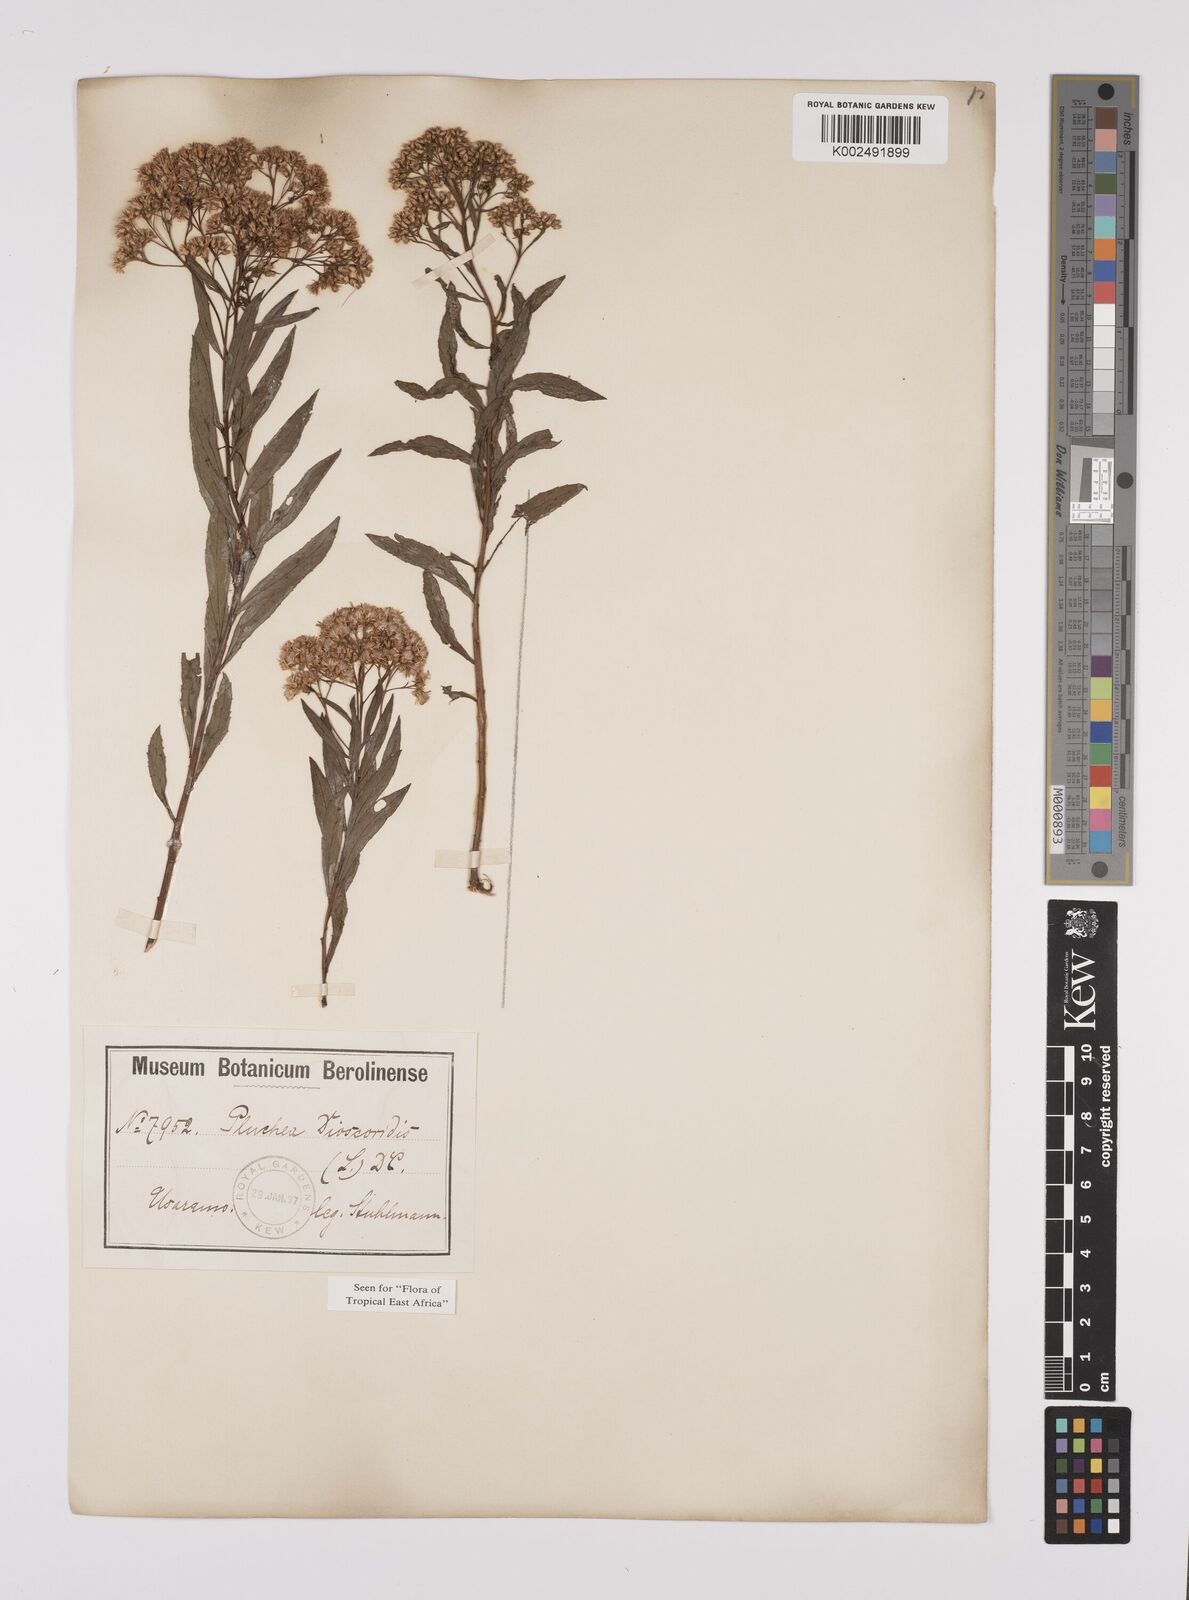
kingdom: Plantae
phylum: Tracheophyta
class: Magnoliopsida
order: Asterales
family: Asteraceae
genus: Pluchea
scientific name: Pluchea dioscoridis
